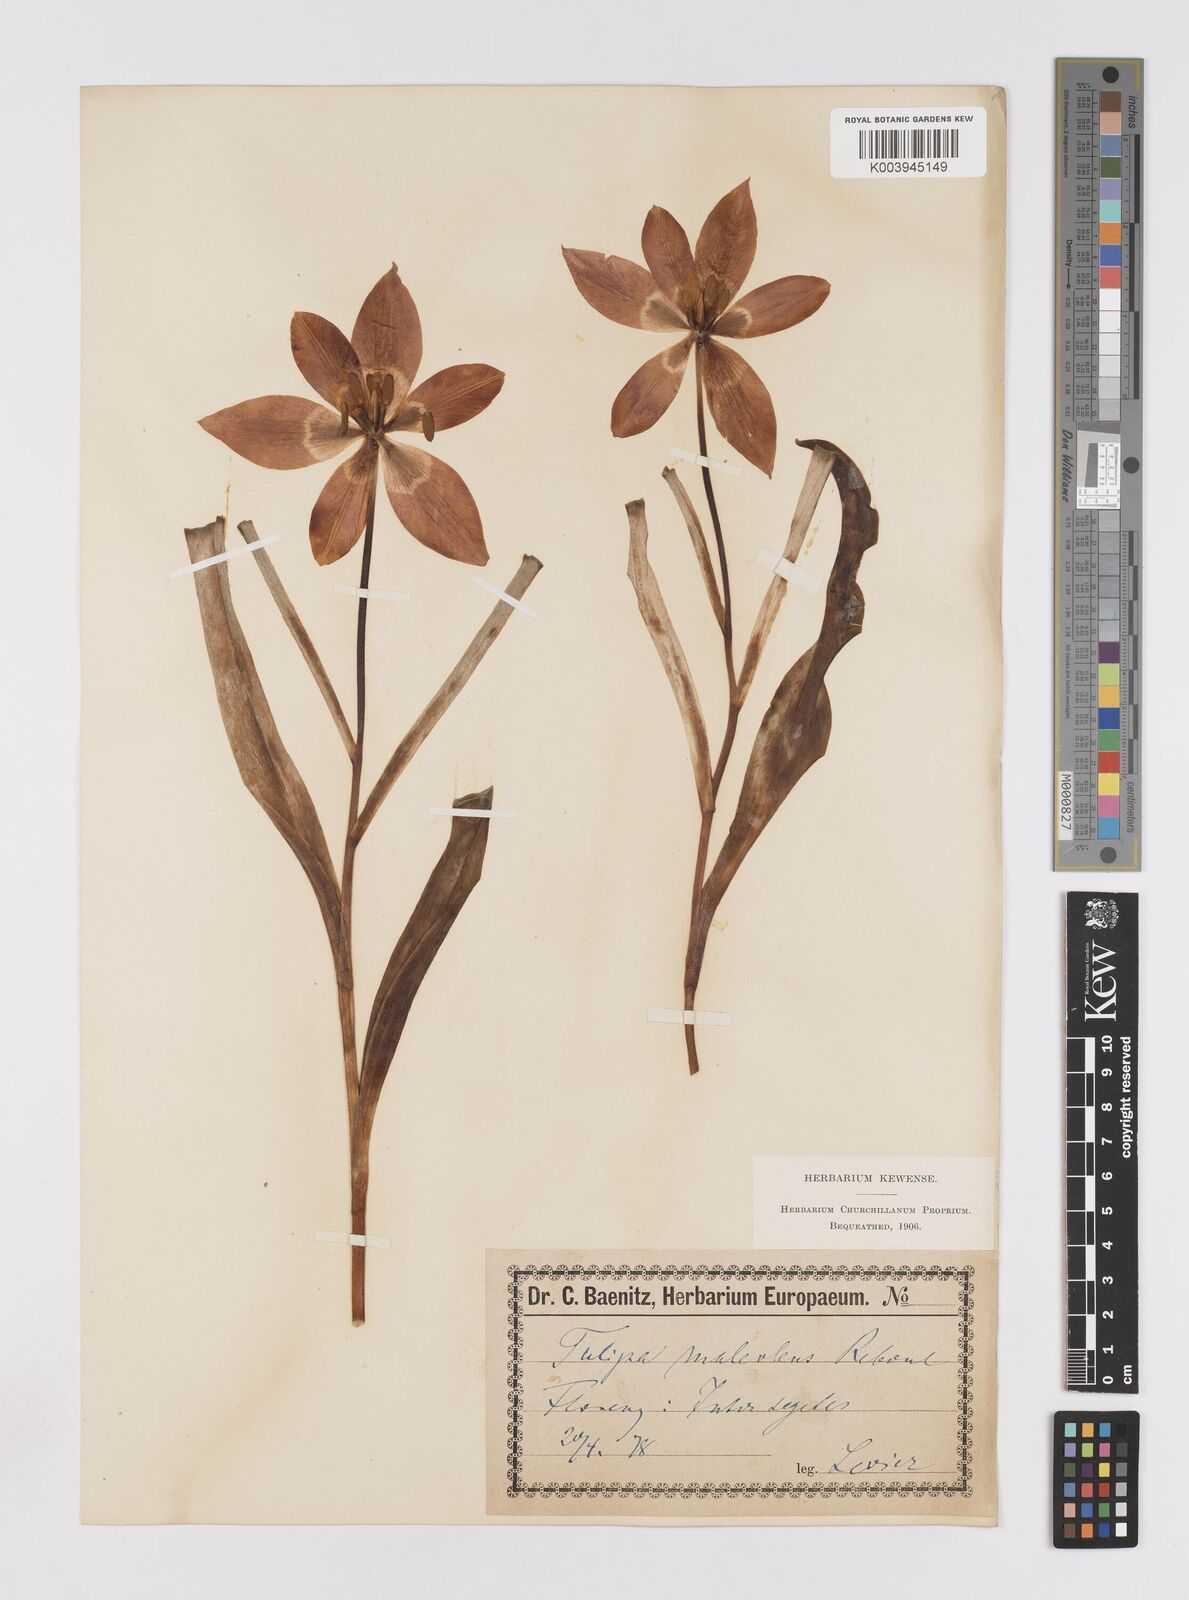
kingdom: Plantae
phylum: Tracheophyta
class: Liliopsida
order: Liliales
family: Liliaceae
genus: Tulipa
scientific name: Tulipa agenensis
